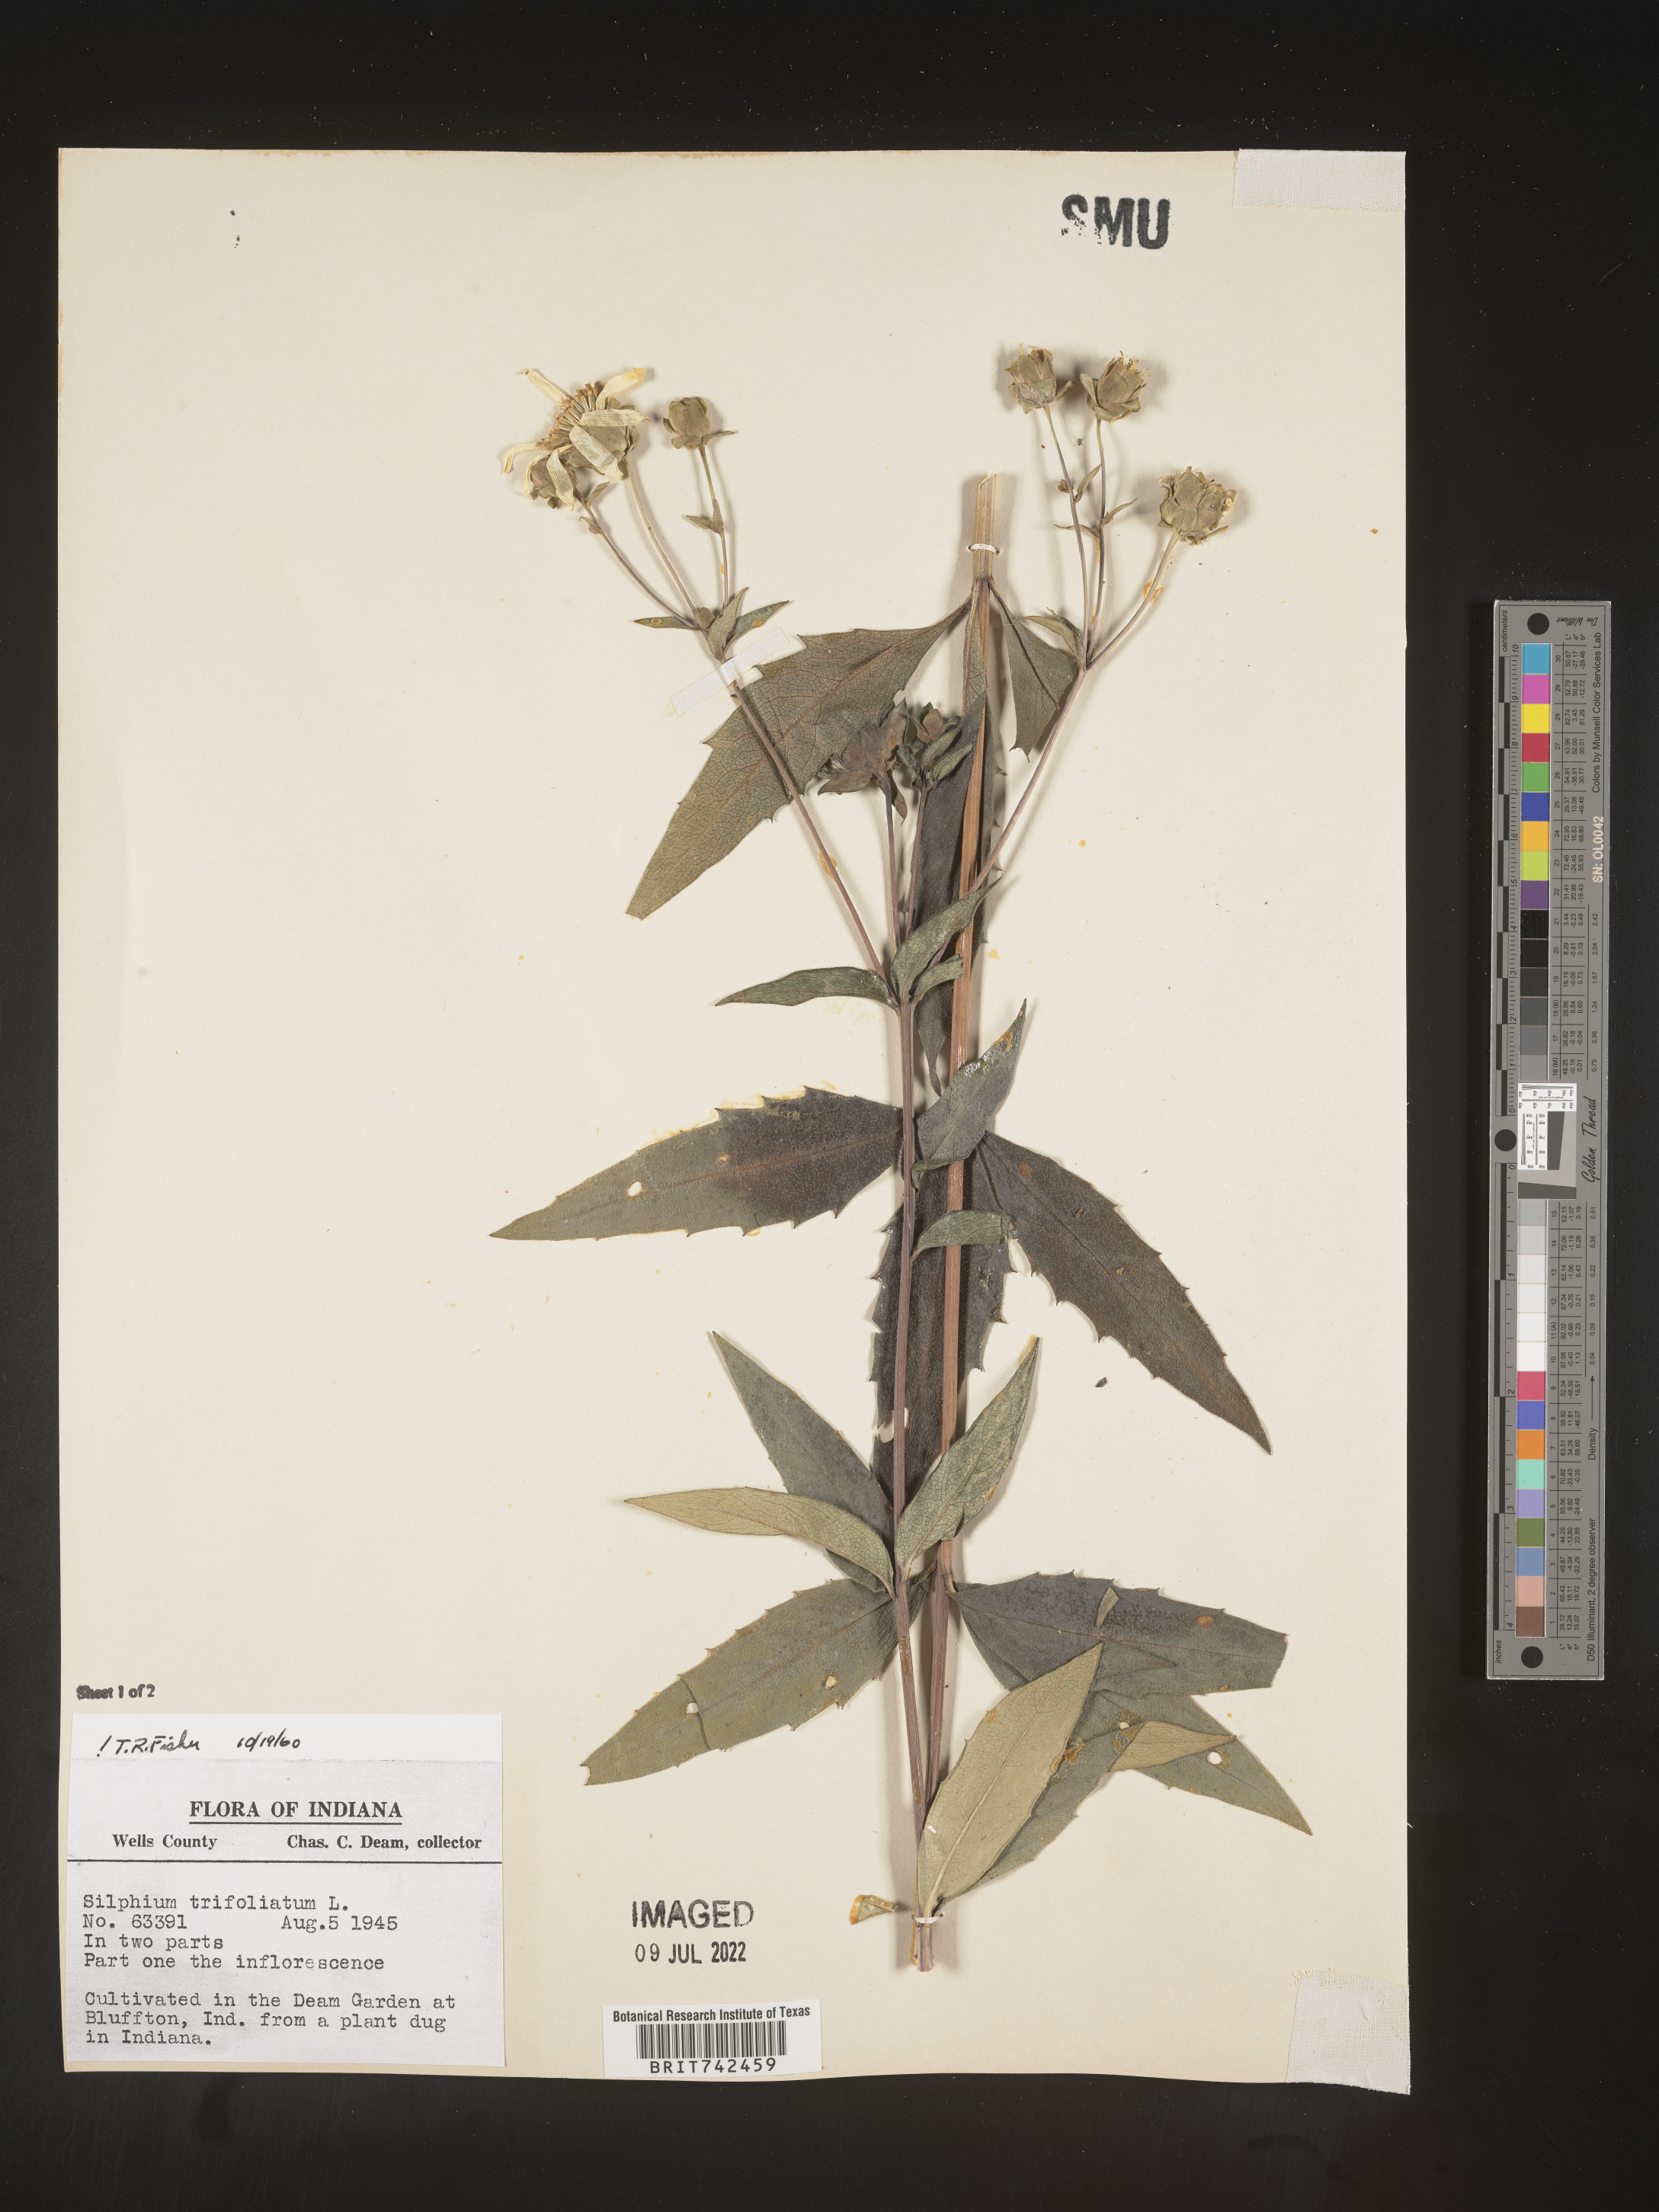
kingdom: Plantae
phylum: Tracheophyta
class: Magnoliopsida
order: Asterales
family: Asteraceae
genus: Silphium
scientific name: Silphium asteriscus
